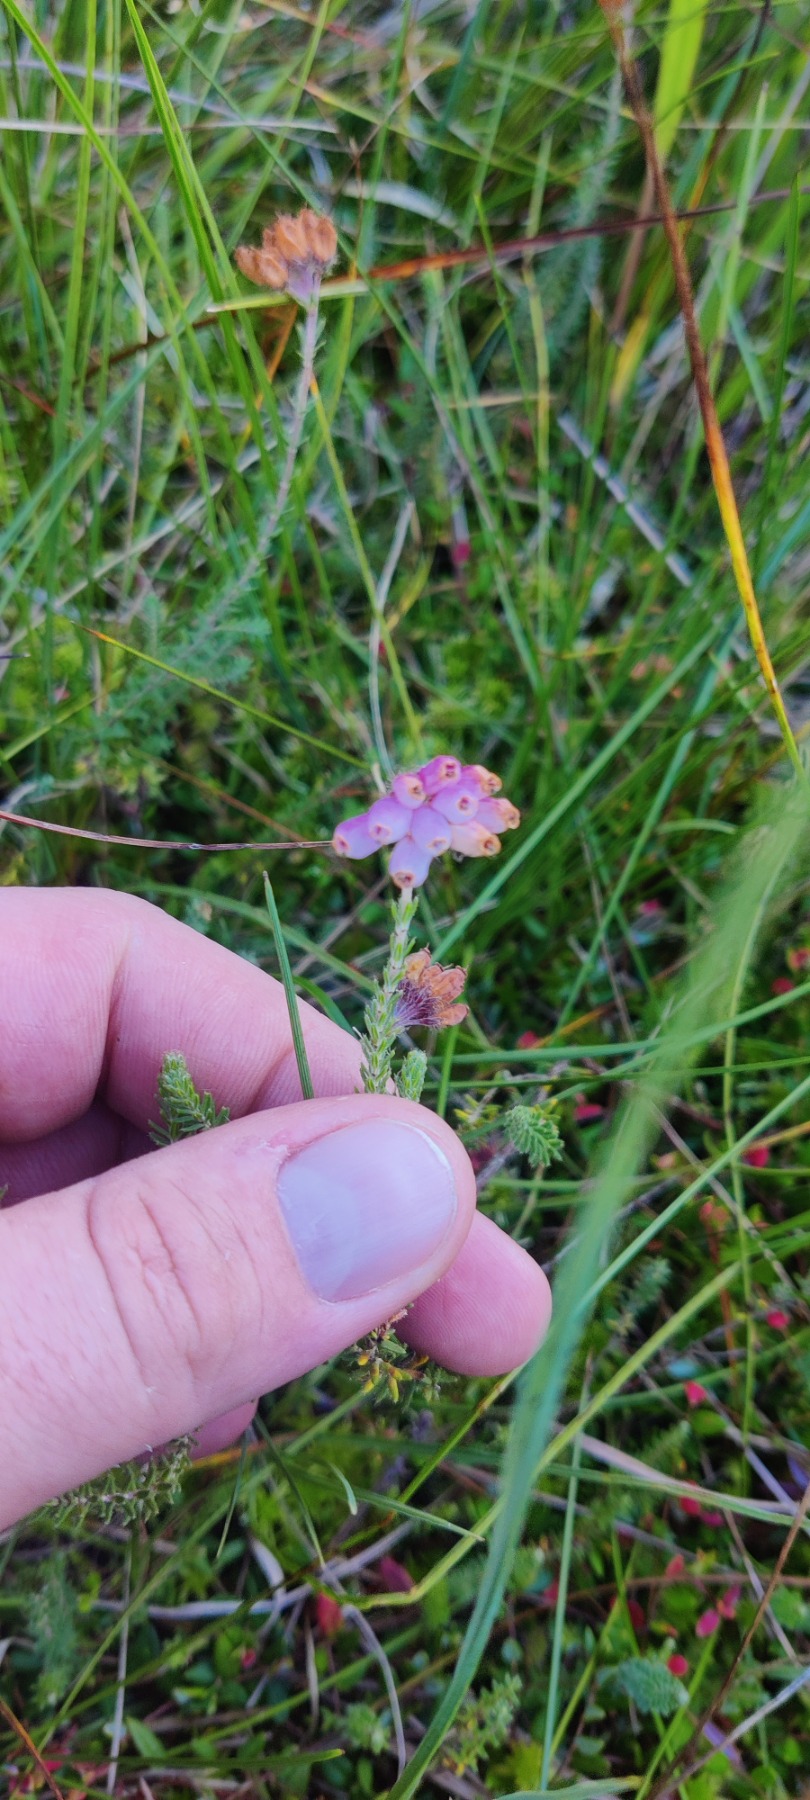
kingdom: Plantae
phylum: Tracheophyta
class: Magnoliopsida
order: Ericales
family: Ericaceae
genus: Erica
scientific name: Erica tetralix
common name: Klokkelyng
